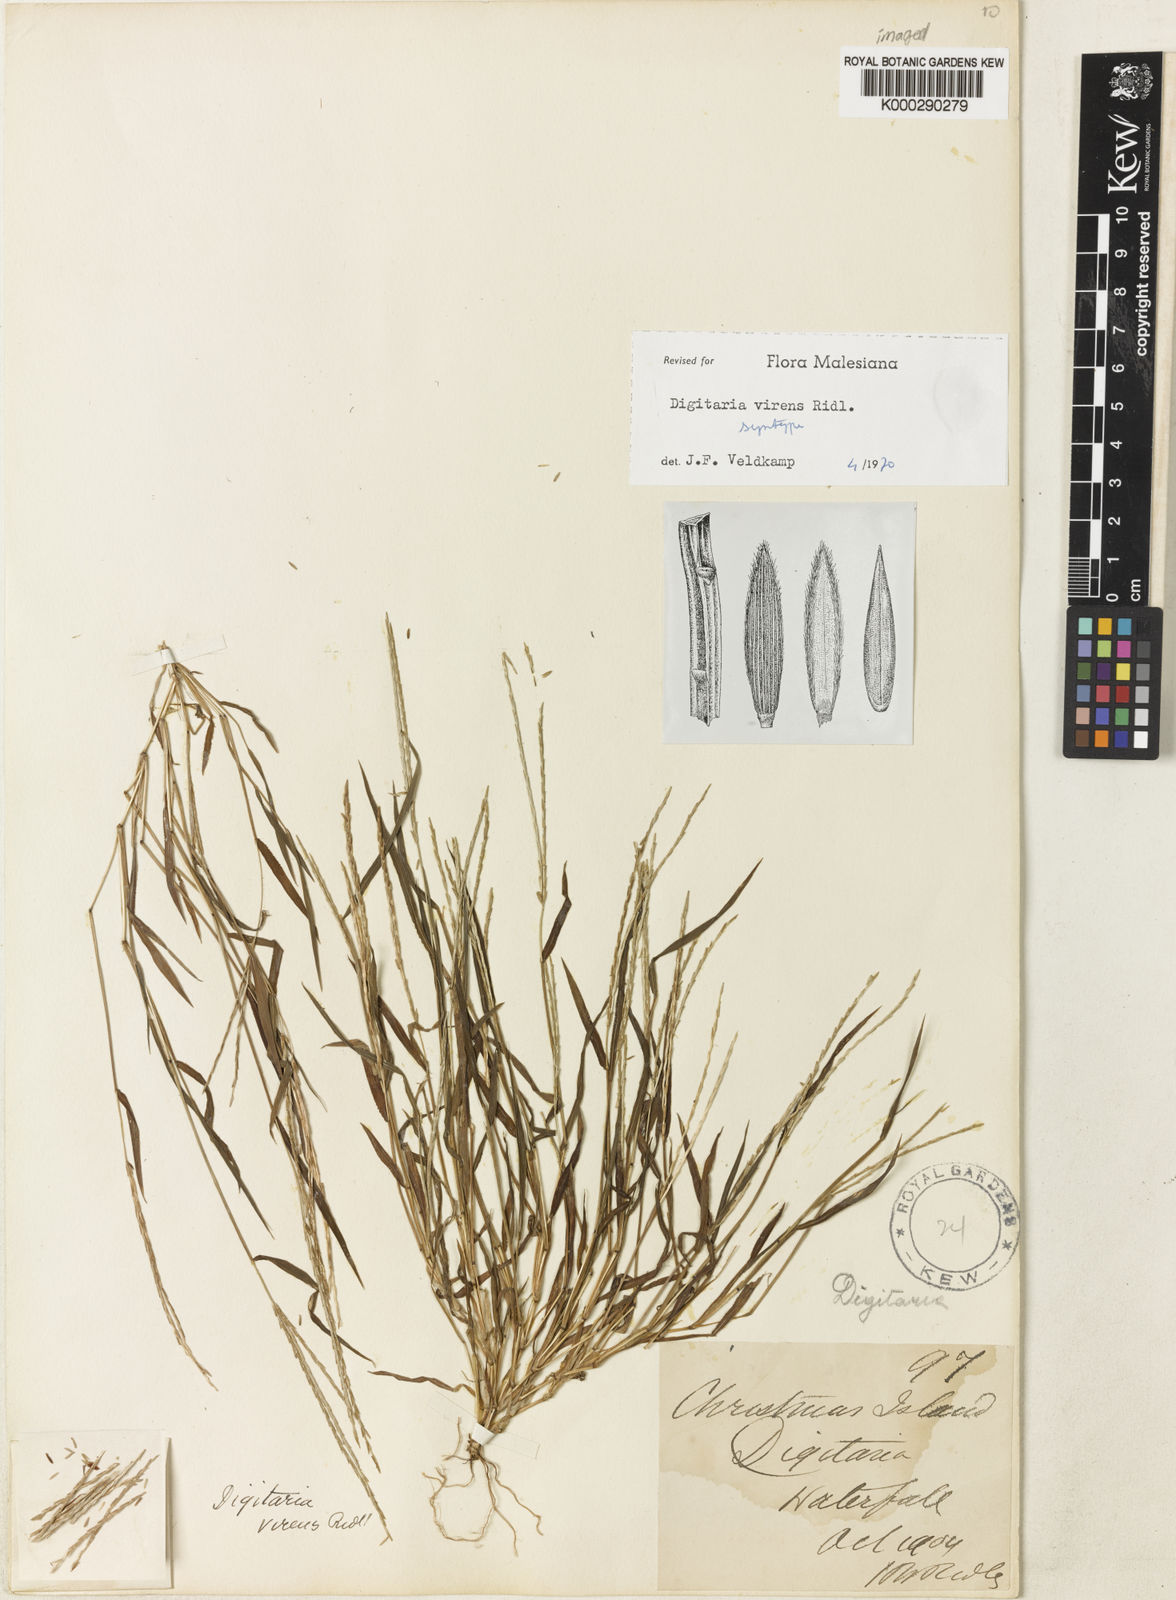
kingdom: Plantae
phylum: Tracheophyta
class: Liliopsida
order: Poales
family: Poaceae
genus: Digitaria
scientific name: Digitaria mariannensis
